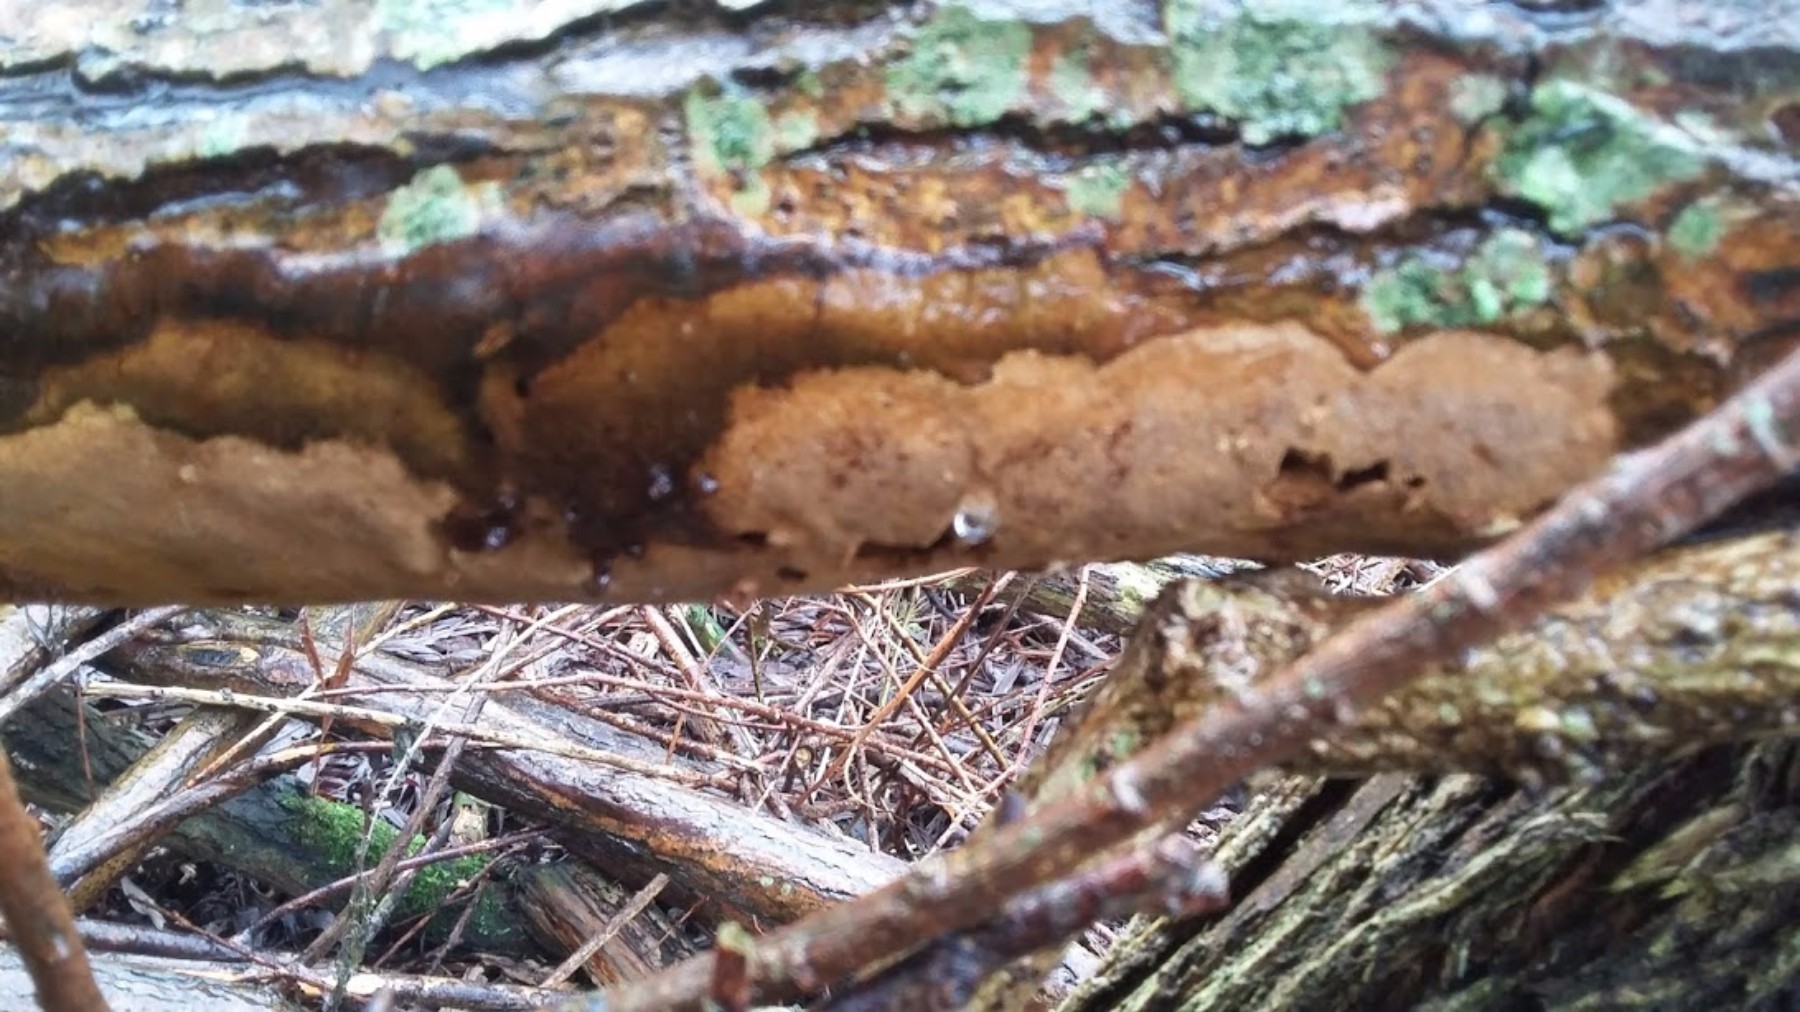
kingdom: Fungi
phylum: Basidiomycota
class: Agaricomycetes
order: Hymenochaetales
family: Hymenochaetaceae
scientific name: Hymenochaetaceae
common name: børstesvampfamilien
